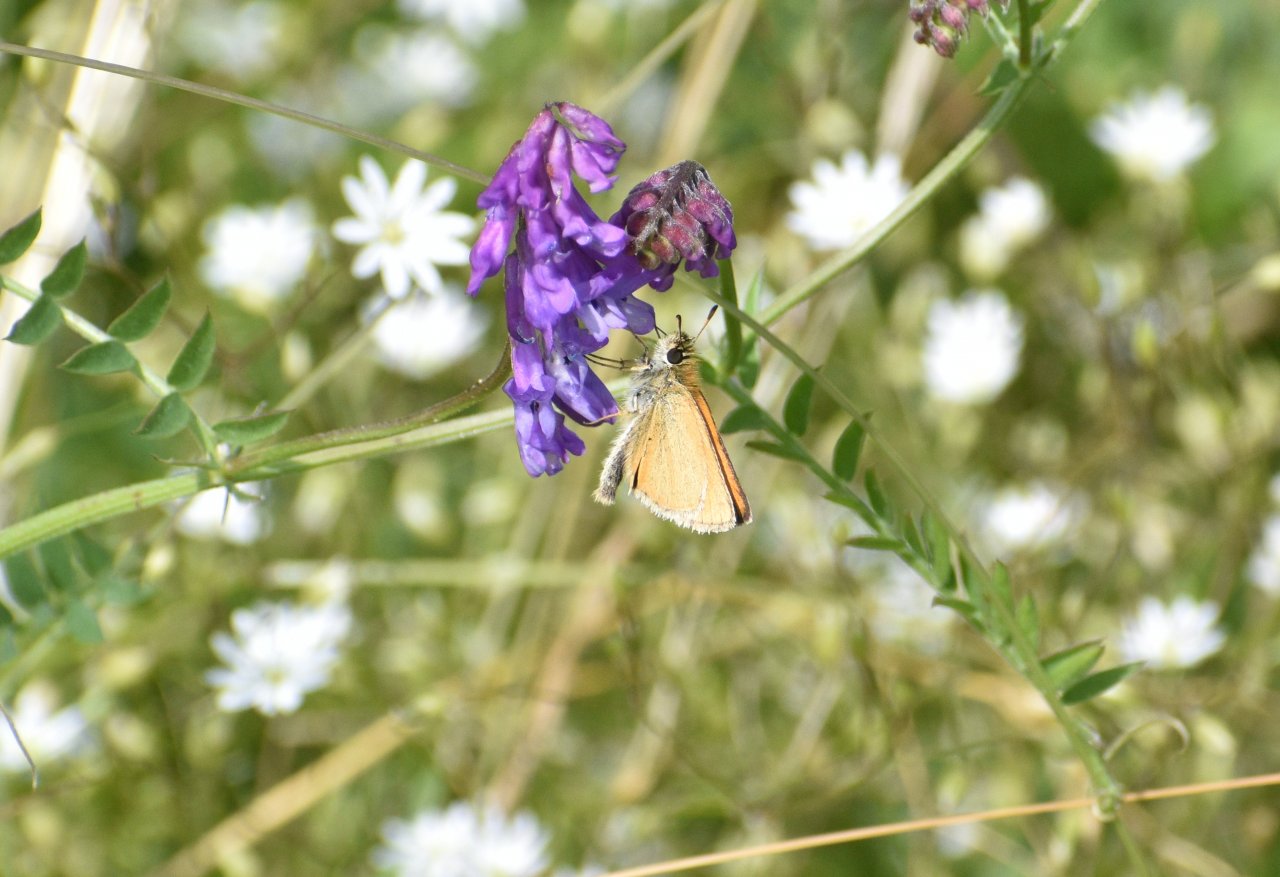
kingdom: Animalia
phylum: Arthropoda
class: Insecta
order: Lepidoptera
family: Hesperiidae
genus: Thymelicus
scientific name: Thymelicus lineola
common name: European Skipper
